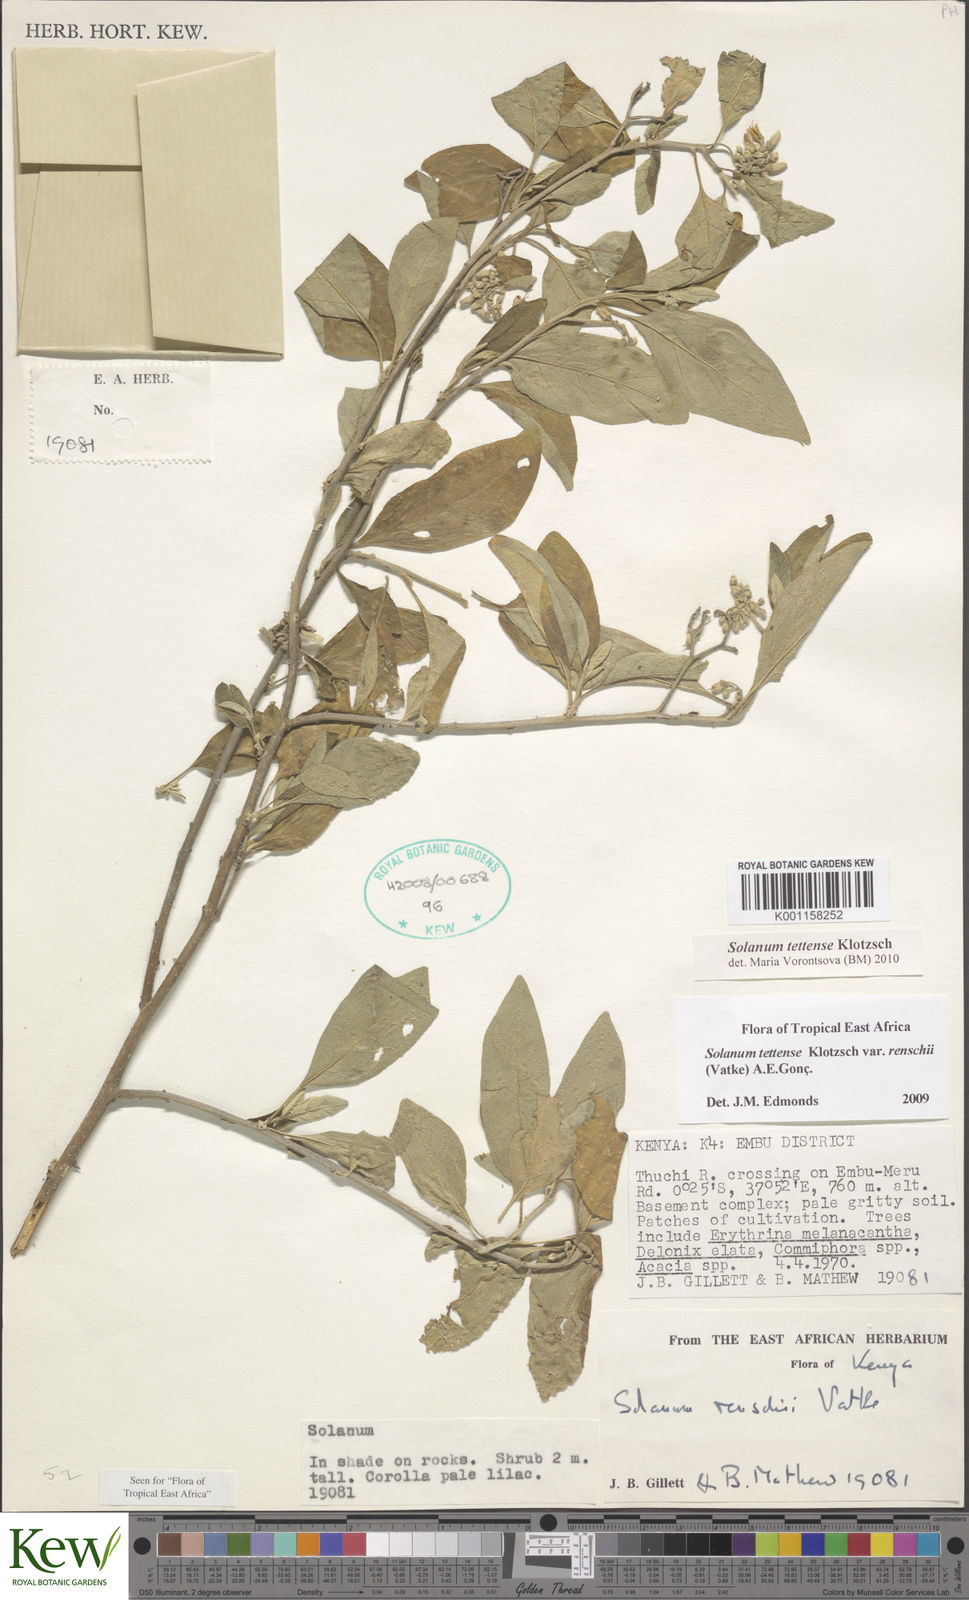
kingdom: Plantae
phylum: Tracheophyta
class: Magnoliopsida
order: Solanales
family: Solanaceae
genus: Solanum
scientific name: Solanum tettense
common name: Mozambique bitter apple
